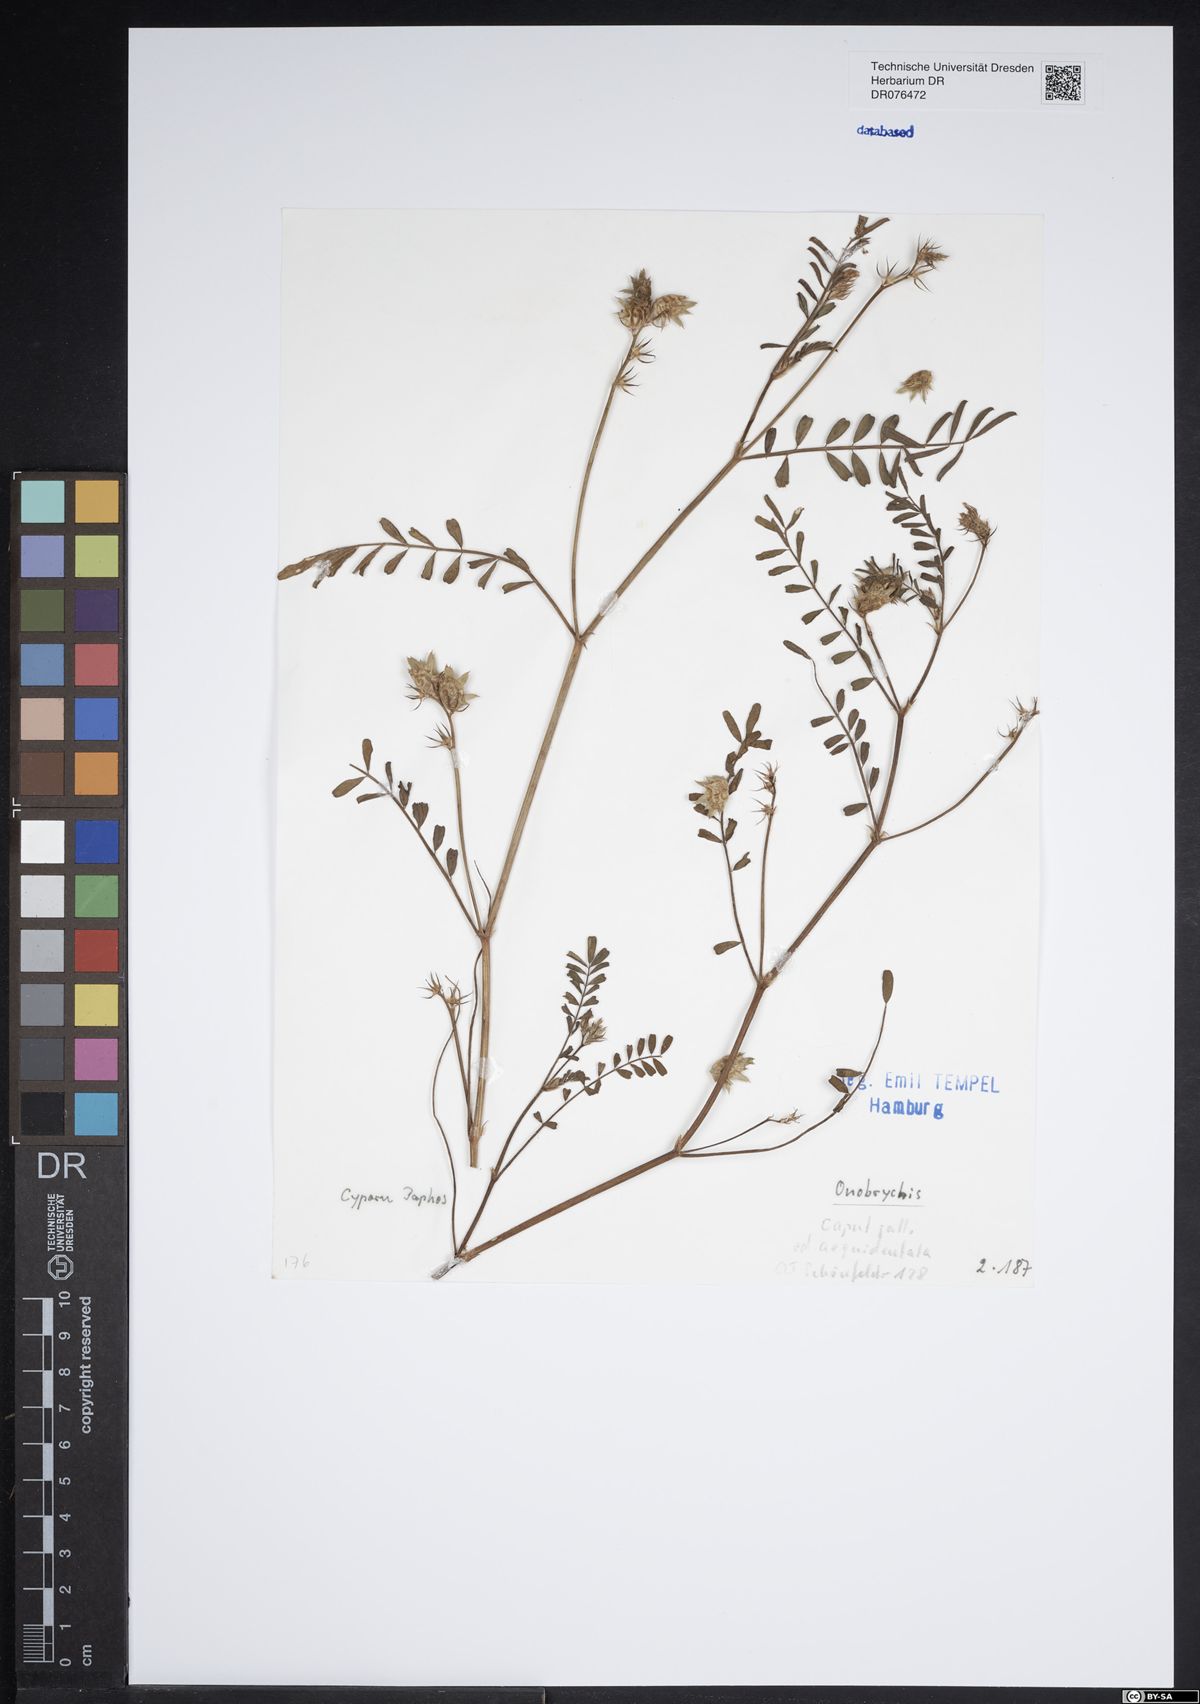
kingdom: Plantae
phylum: Tracheophyta
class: Magnoliopsida
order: Fabales
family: Fabaceae
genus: Onobrychis
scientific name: Onobrychis
